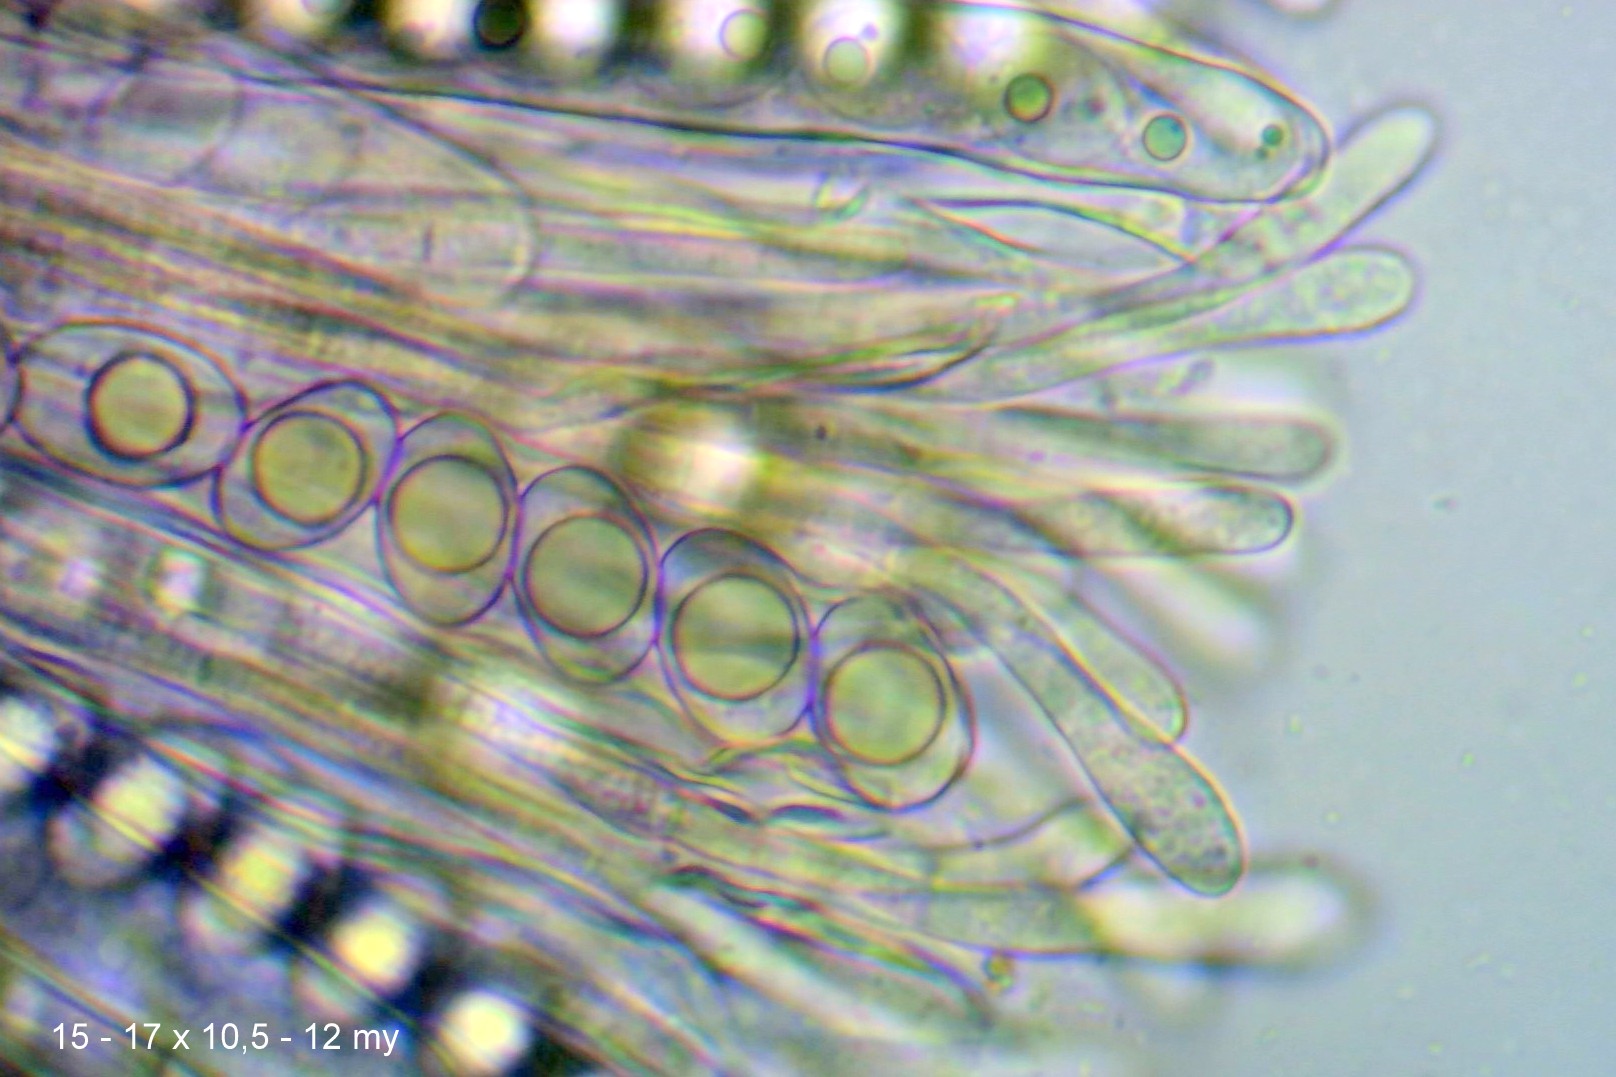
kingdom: Fungi
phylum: Ascomycota
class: Pezizomycetes
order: Pezizales
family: Pyronemataceae
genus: Octospora
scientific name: Octospora rustica
